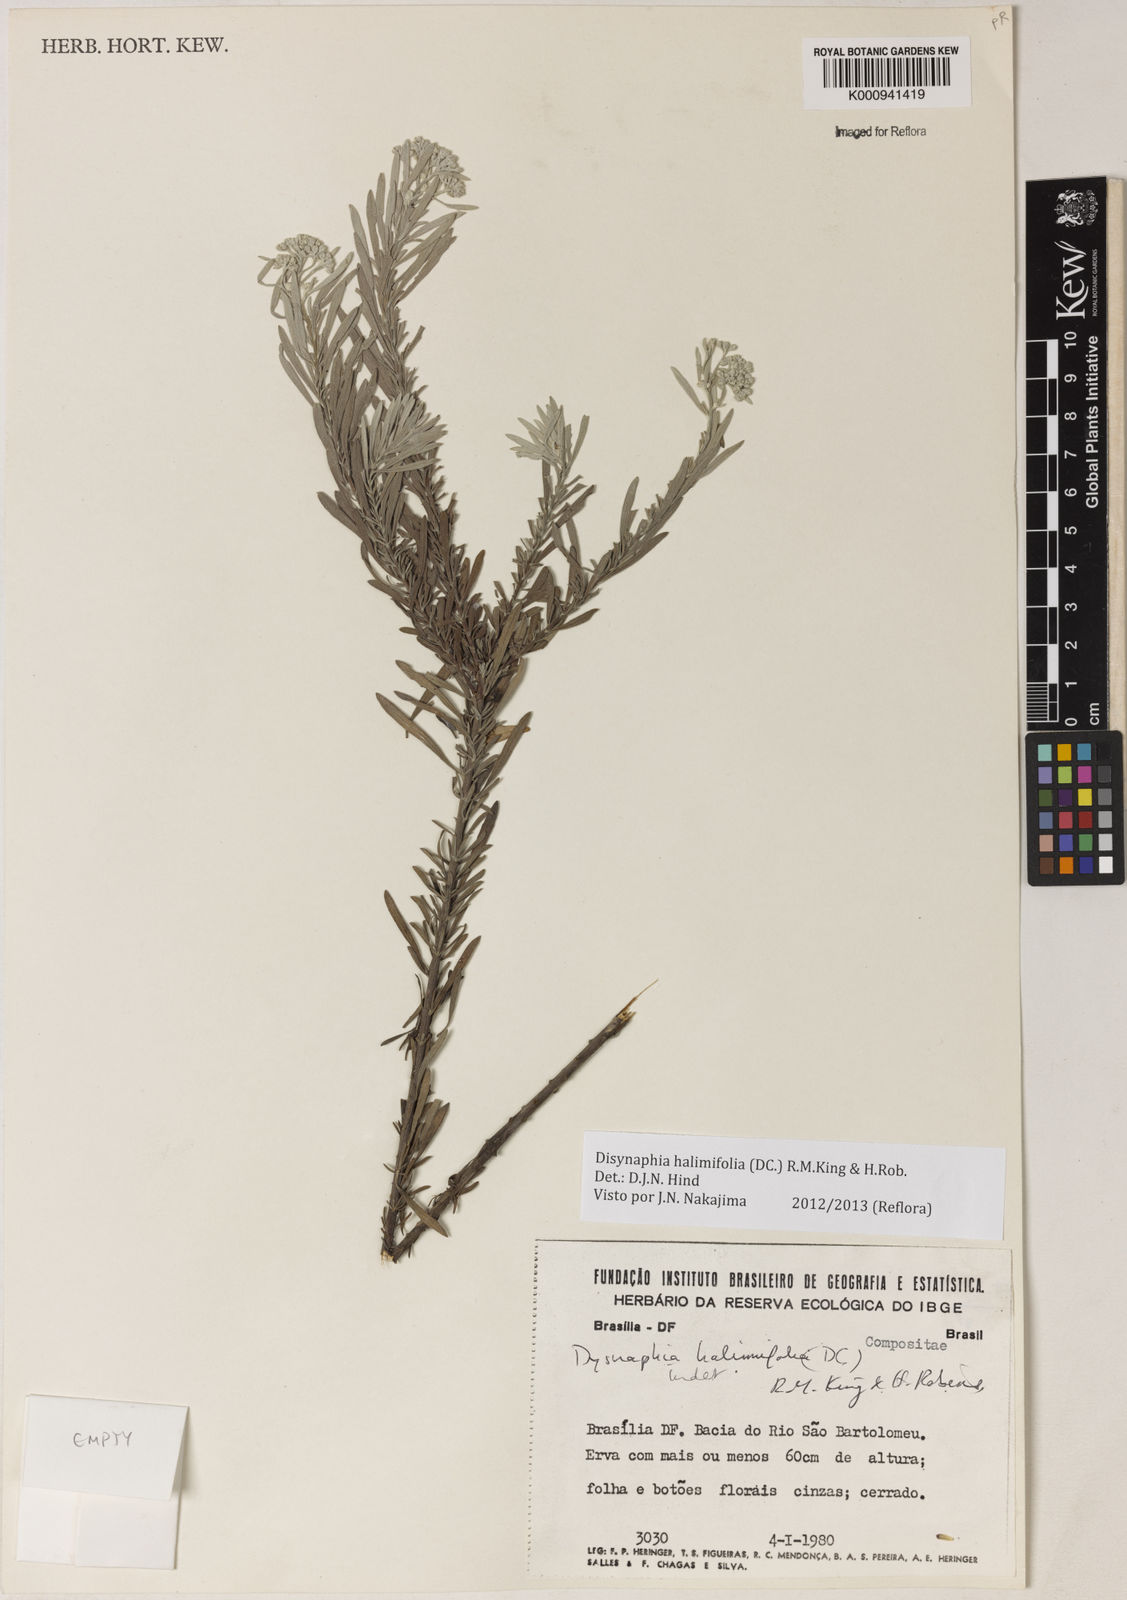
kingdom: Plantae
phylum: Tracheophyta
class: Magnoliopsida
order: Asterales
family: Asteraceae
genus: Disynaphia
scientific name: Disynaphia halimifolia
